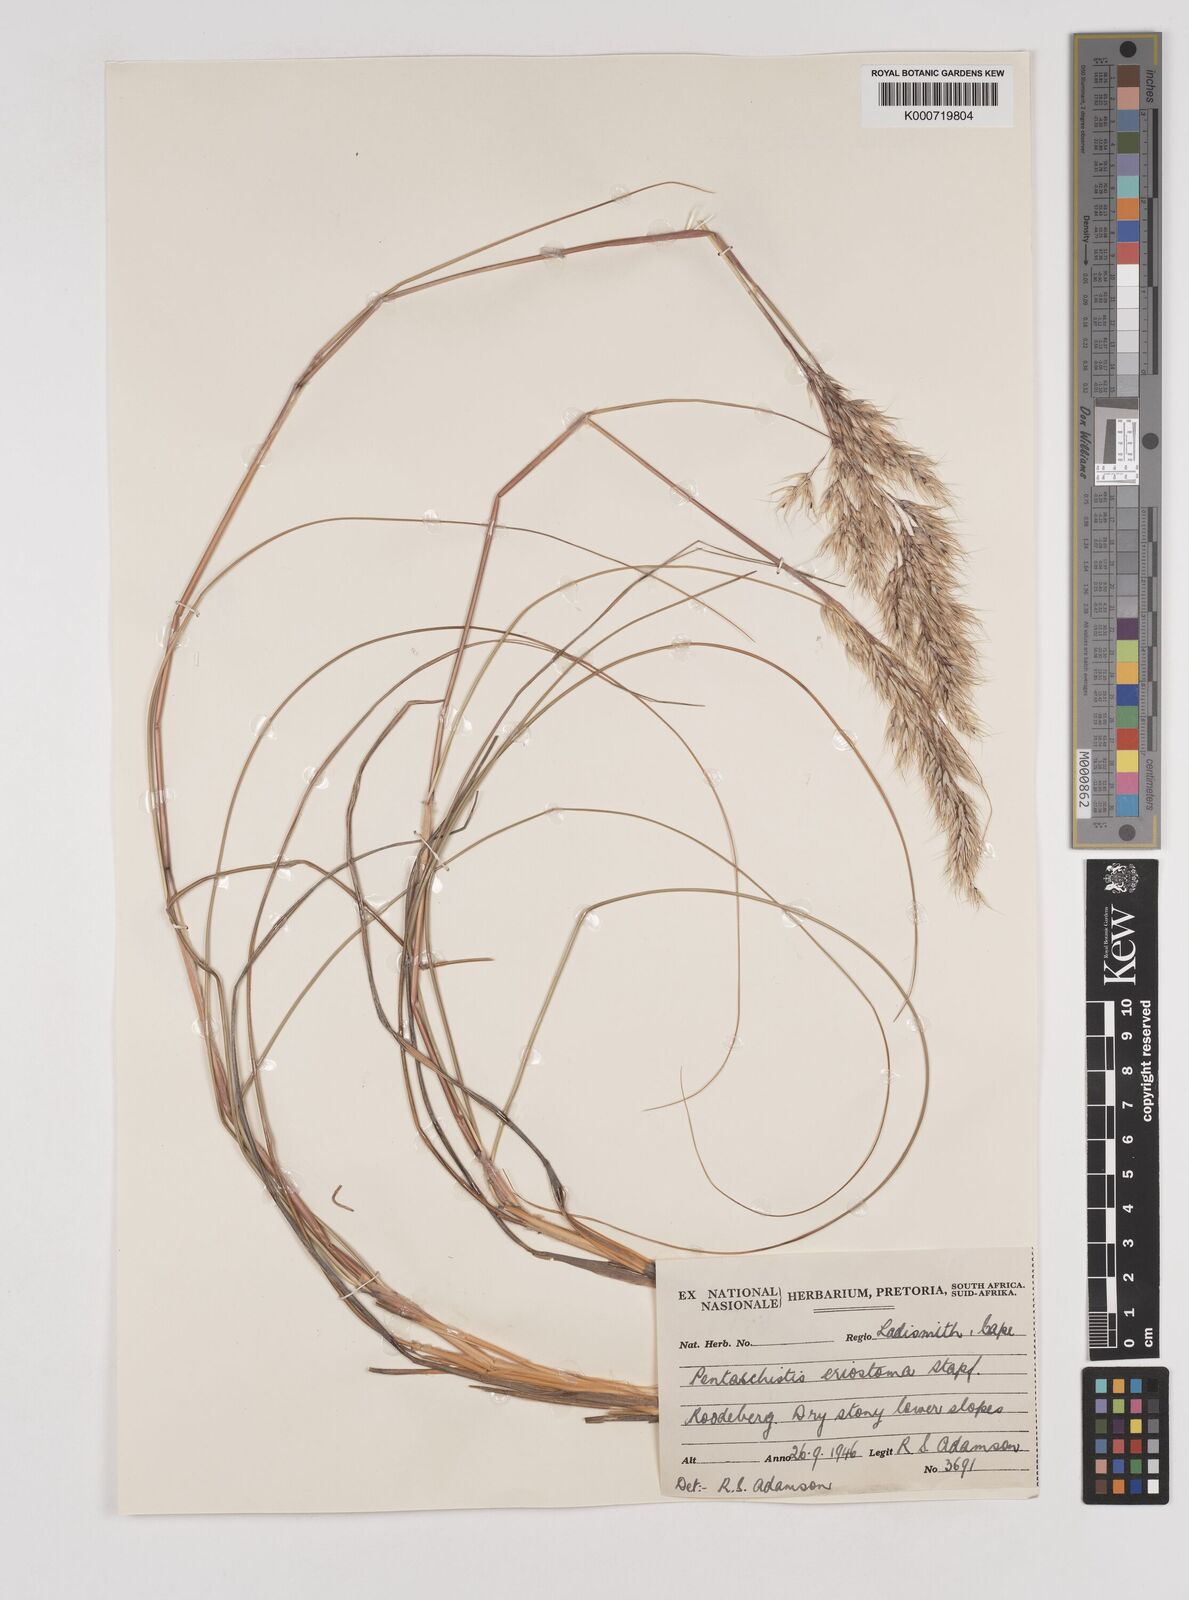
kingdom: Plantae
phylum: Tracheophyta
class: Liliopsida
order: Poales
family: Poaceae
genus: Pentameris
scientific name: Pentameris eriostoma
